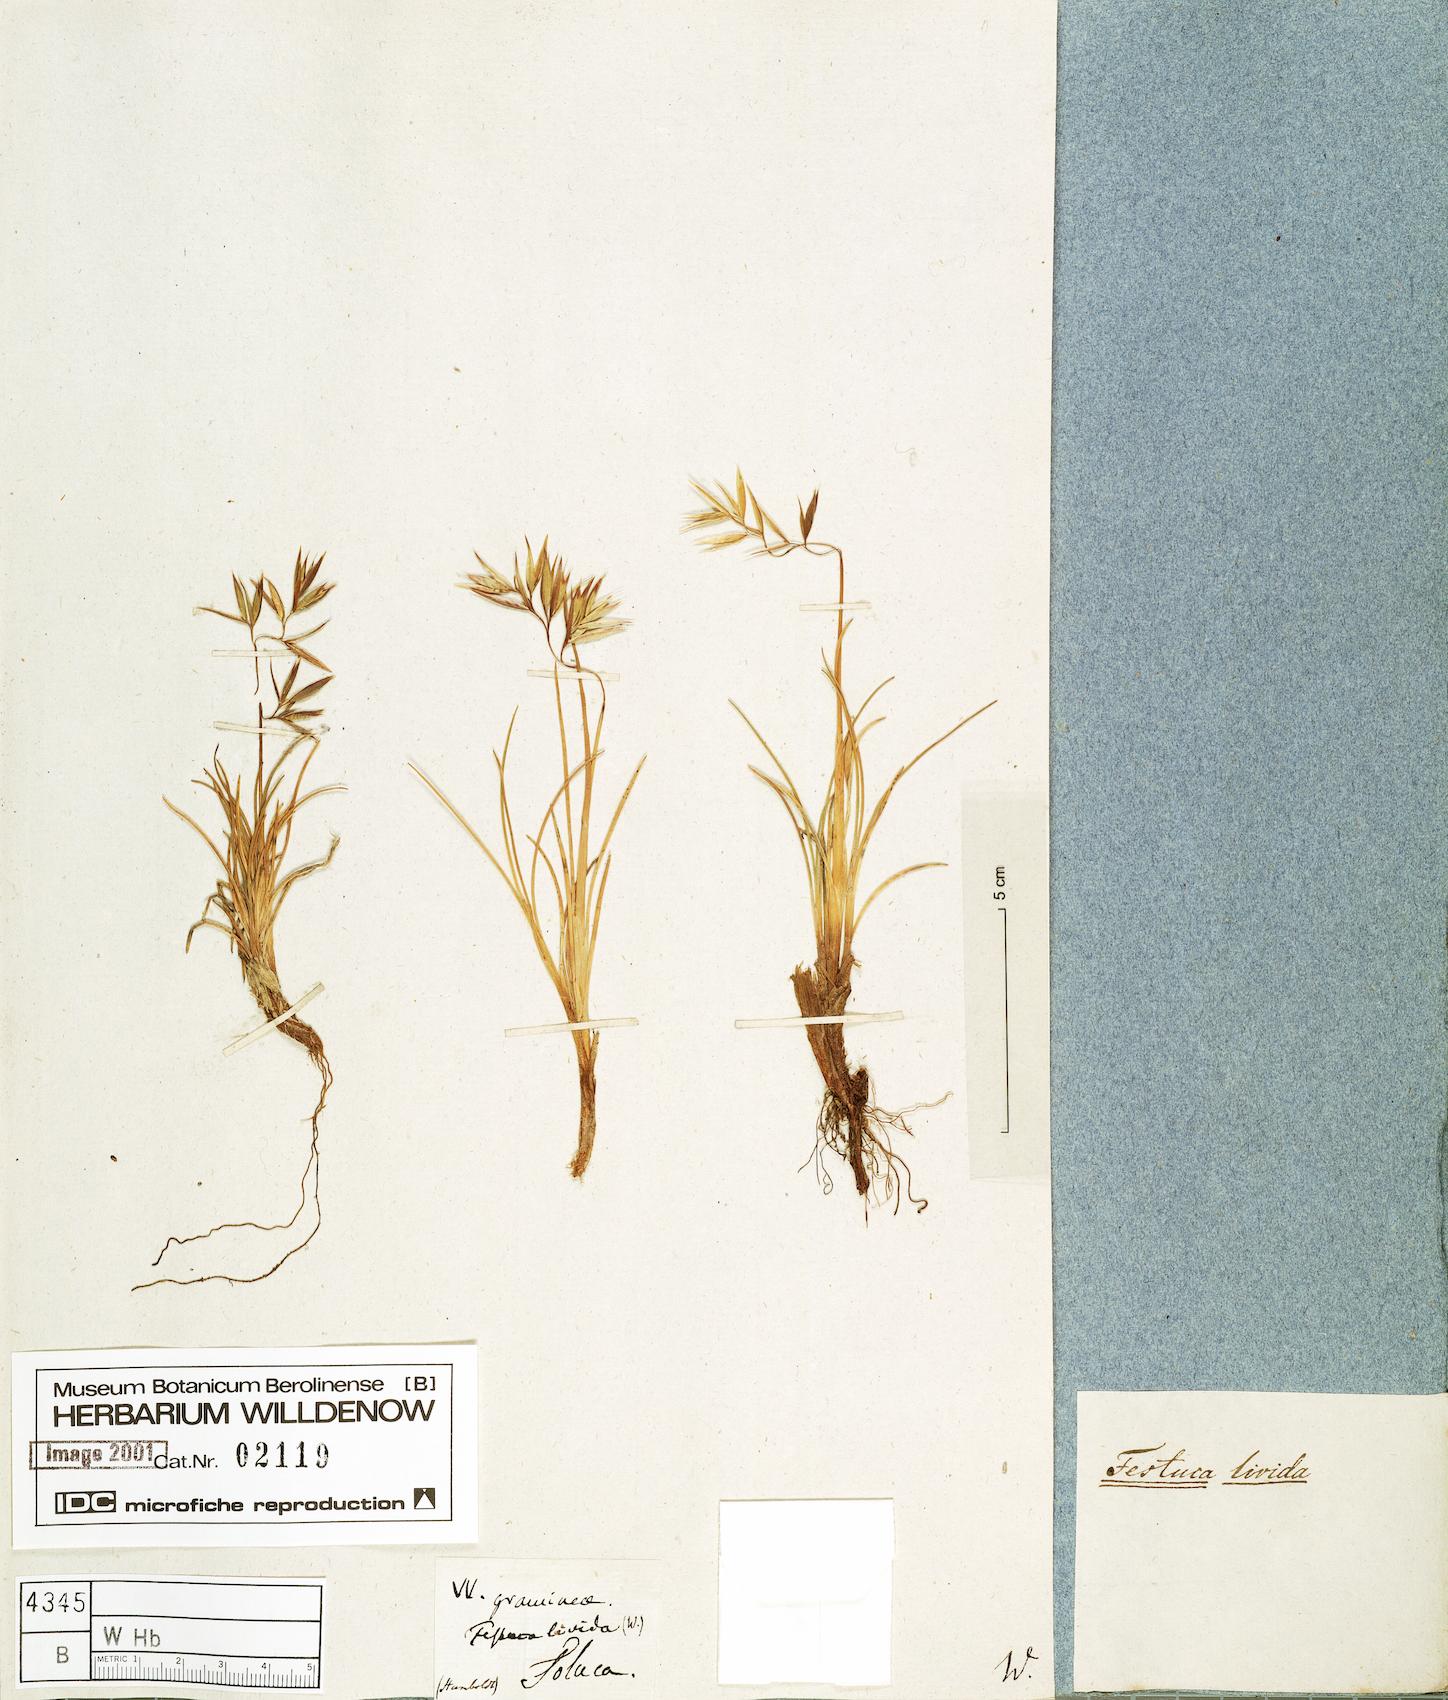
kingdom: Plantae
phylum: Tracheophyta
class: Liliopsida
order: Poales
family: Poaceae
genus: Festuca
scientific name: Festuca livida
